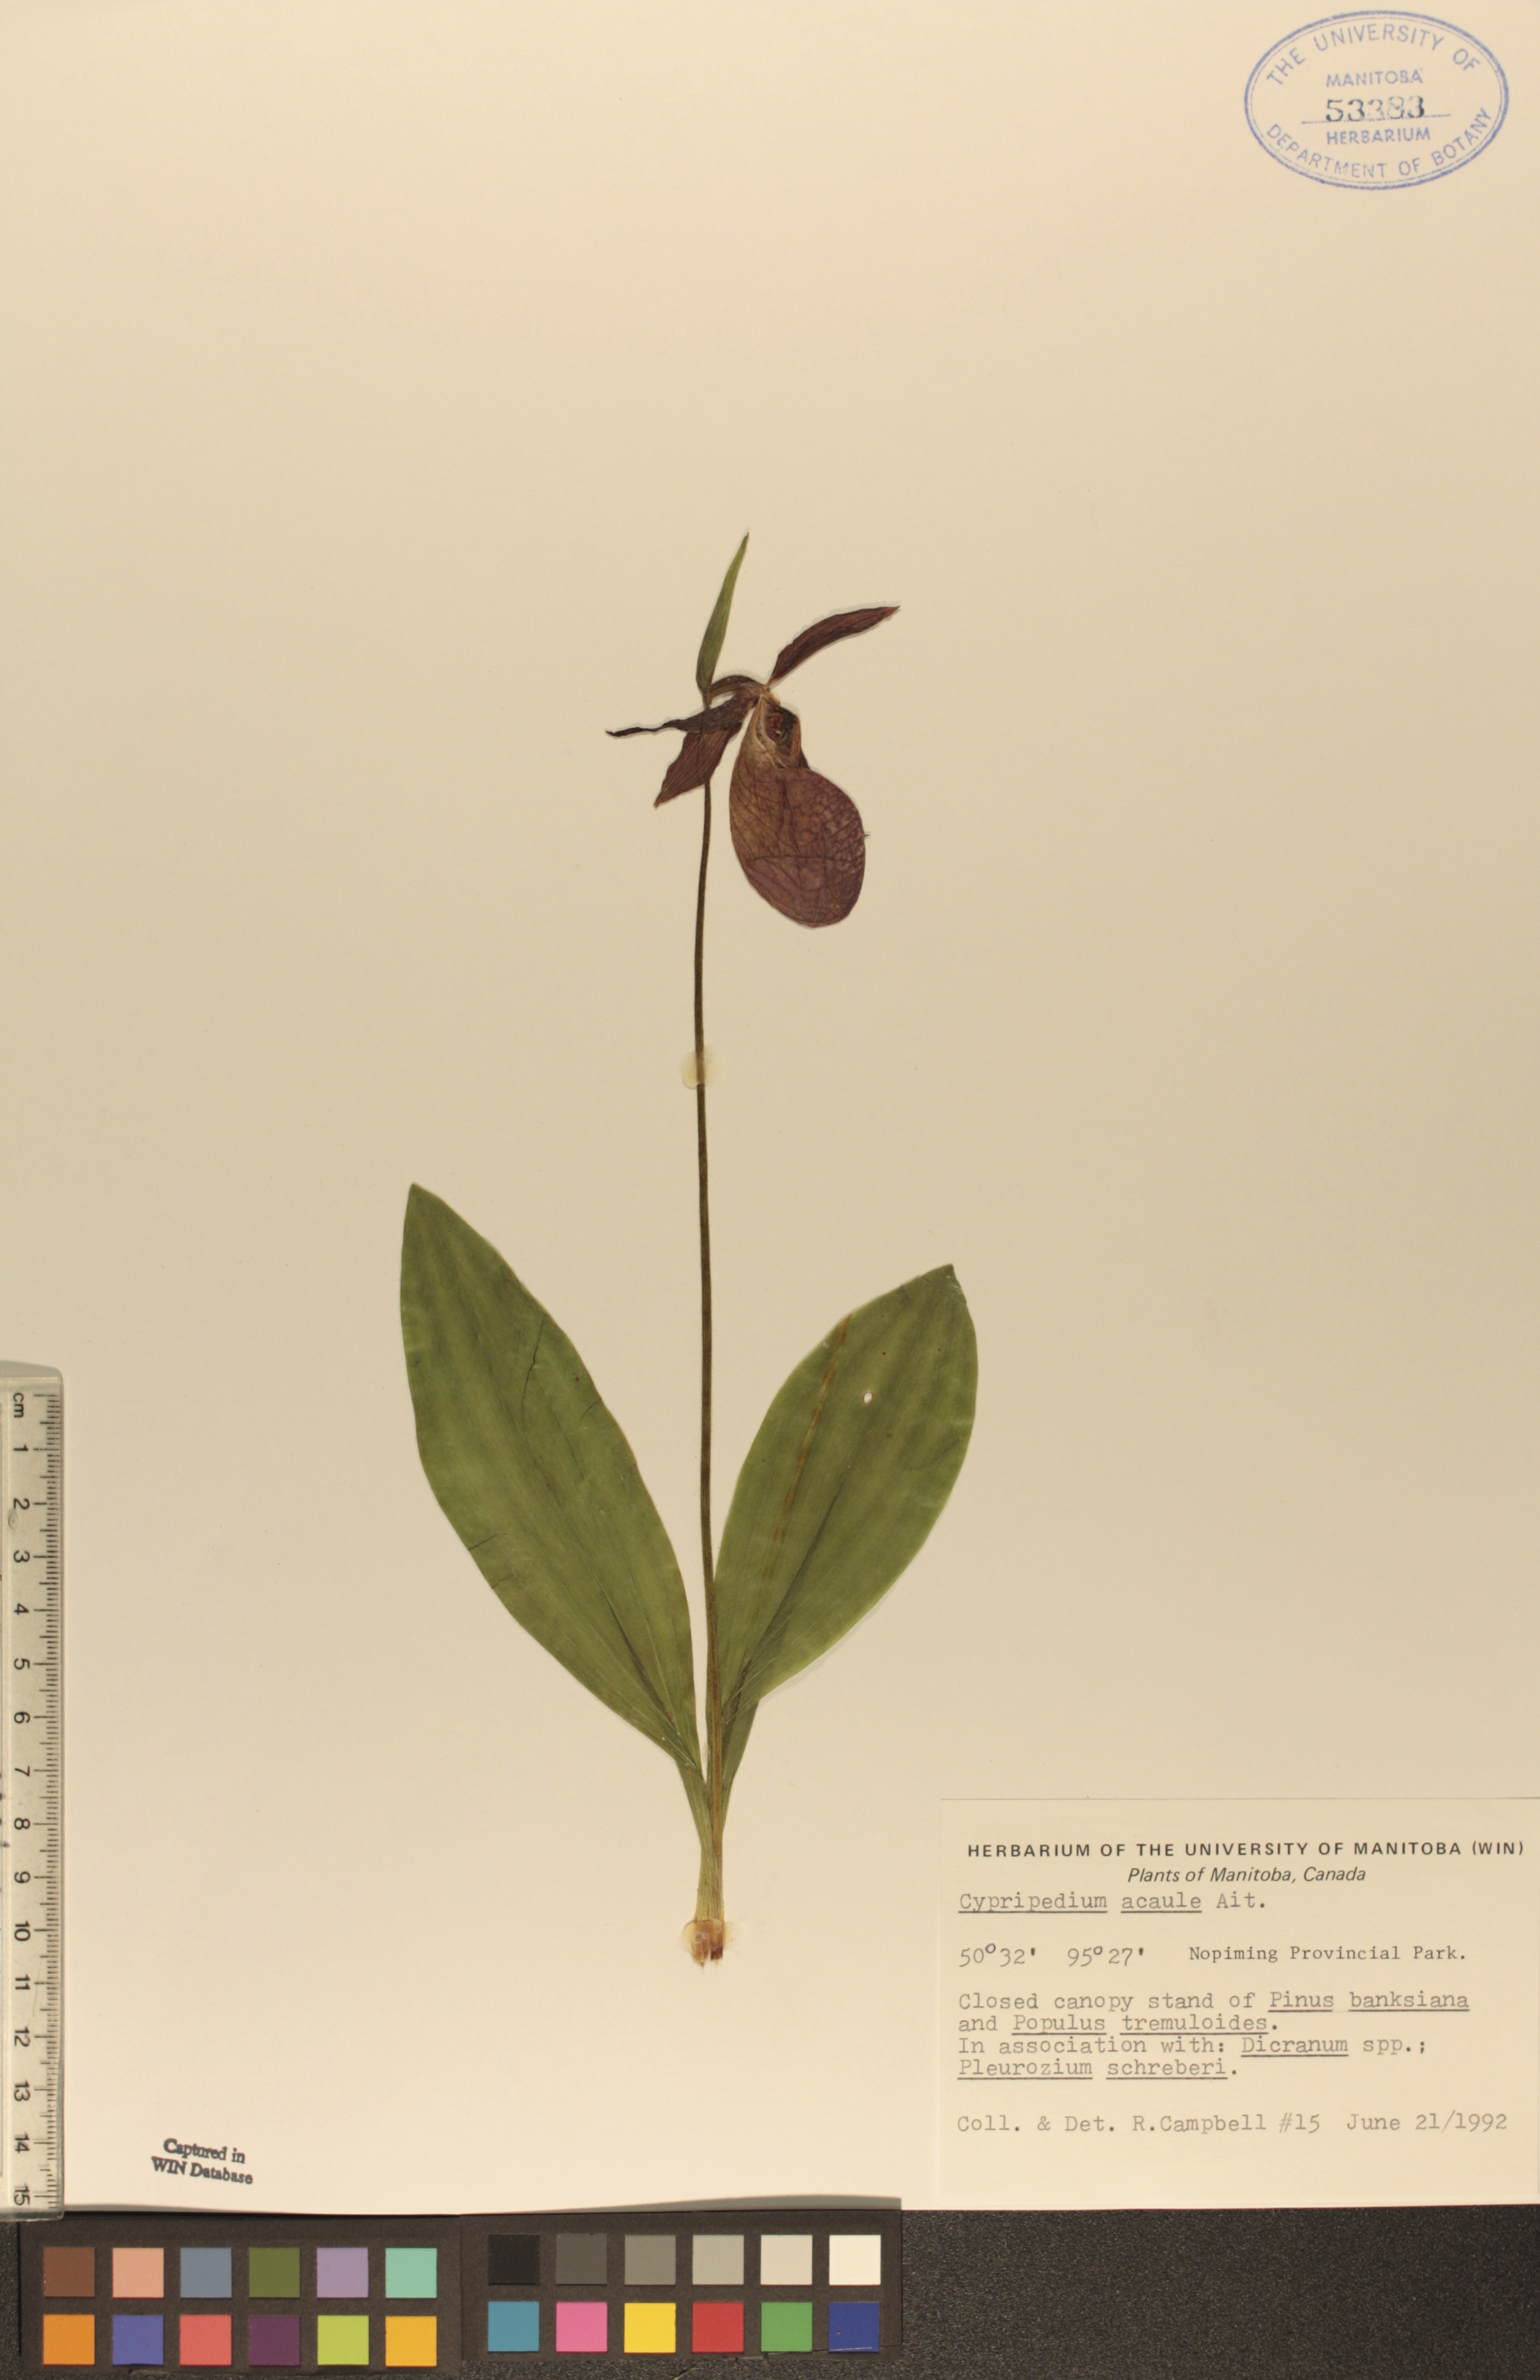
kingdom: Plantae
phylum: Tracheophyta
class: Liliopsida
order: Asparagales
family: Orchidaceae
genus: Cypripedium
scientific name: Cypripedium acaule
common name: Pink lady's-slipper
